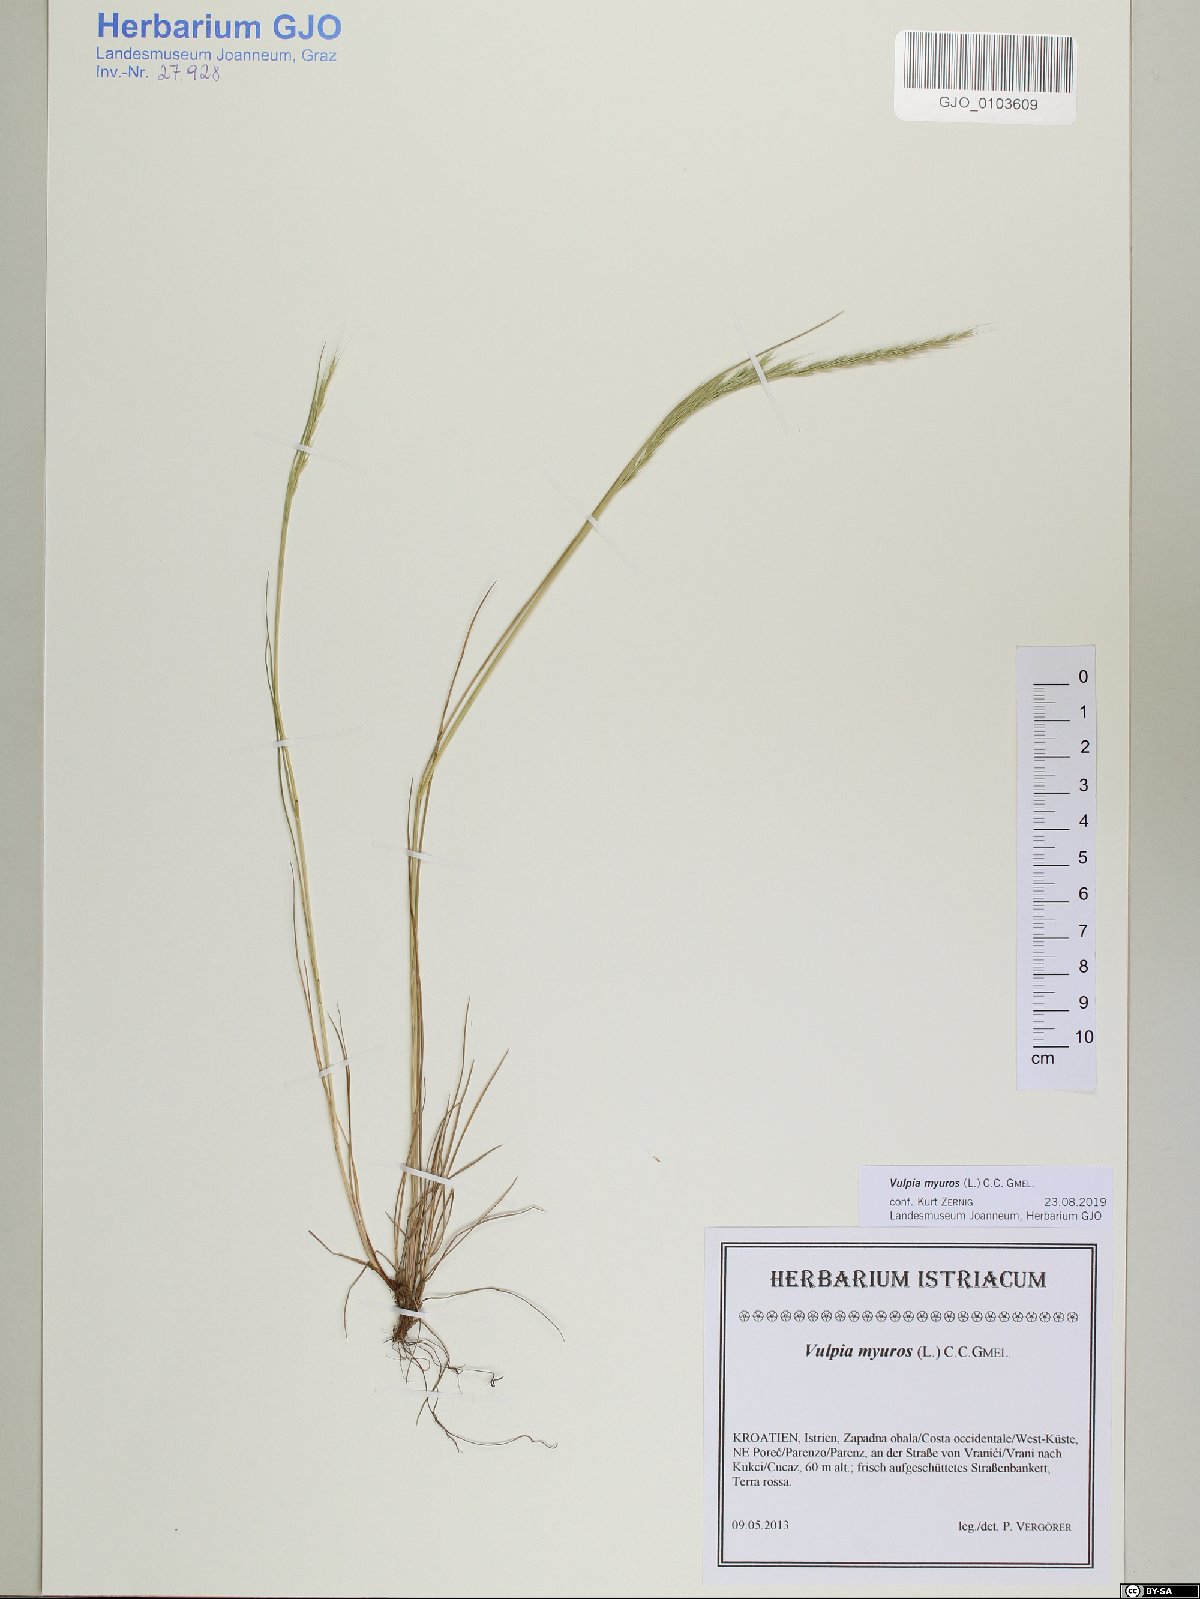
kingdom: Plantae
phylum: Tracheophyta
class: Liliopsida
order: Poales
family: Poaceae
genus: Festuca
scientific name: Festuca myuros
